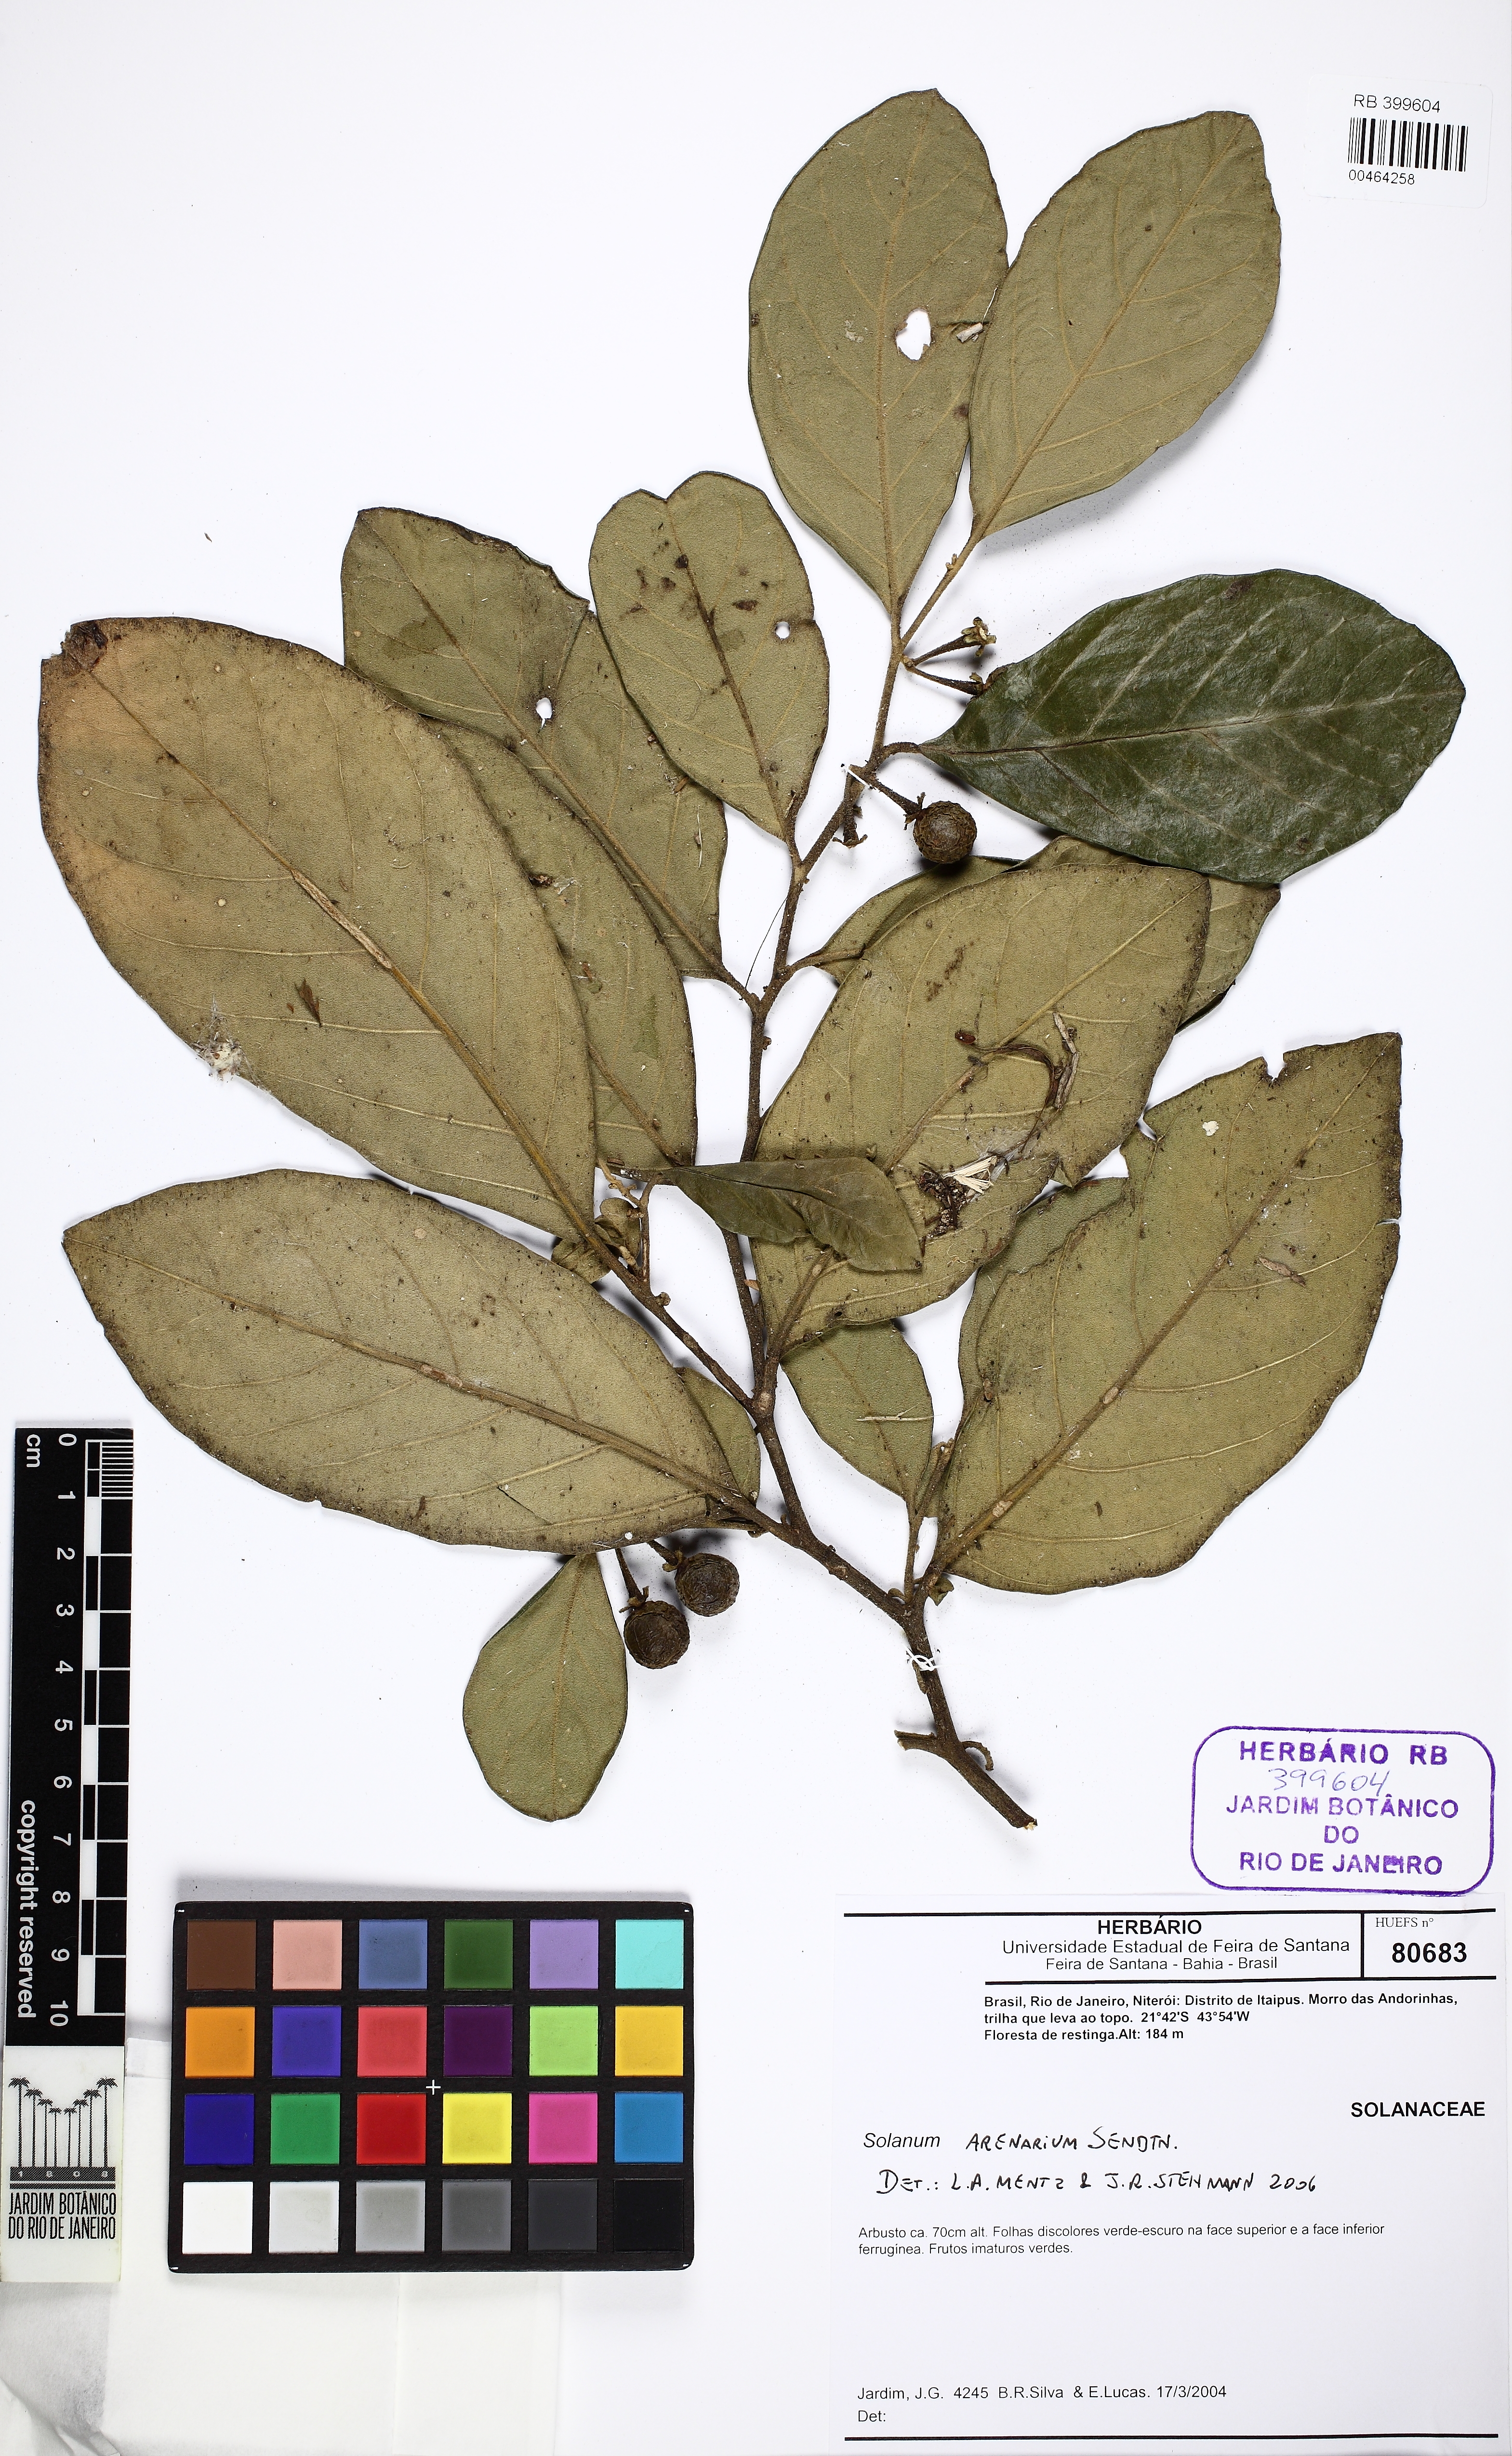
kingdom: Plantae
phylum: Tracheophyta
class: Magnoliopsida
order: Solanales
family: Solanaceae
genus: Solanum
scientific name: Solanum arenarium
